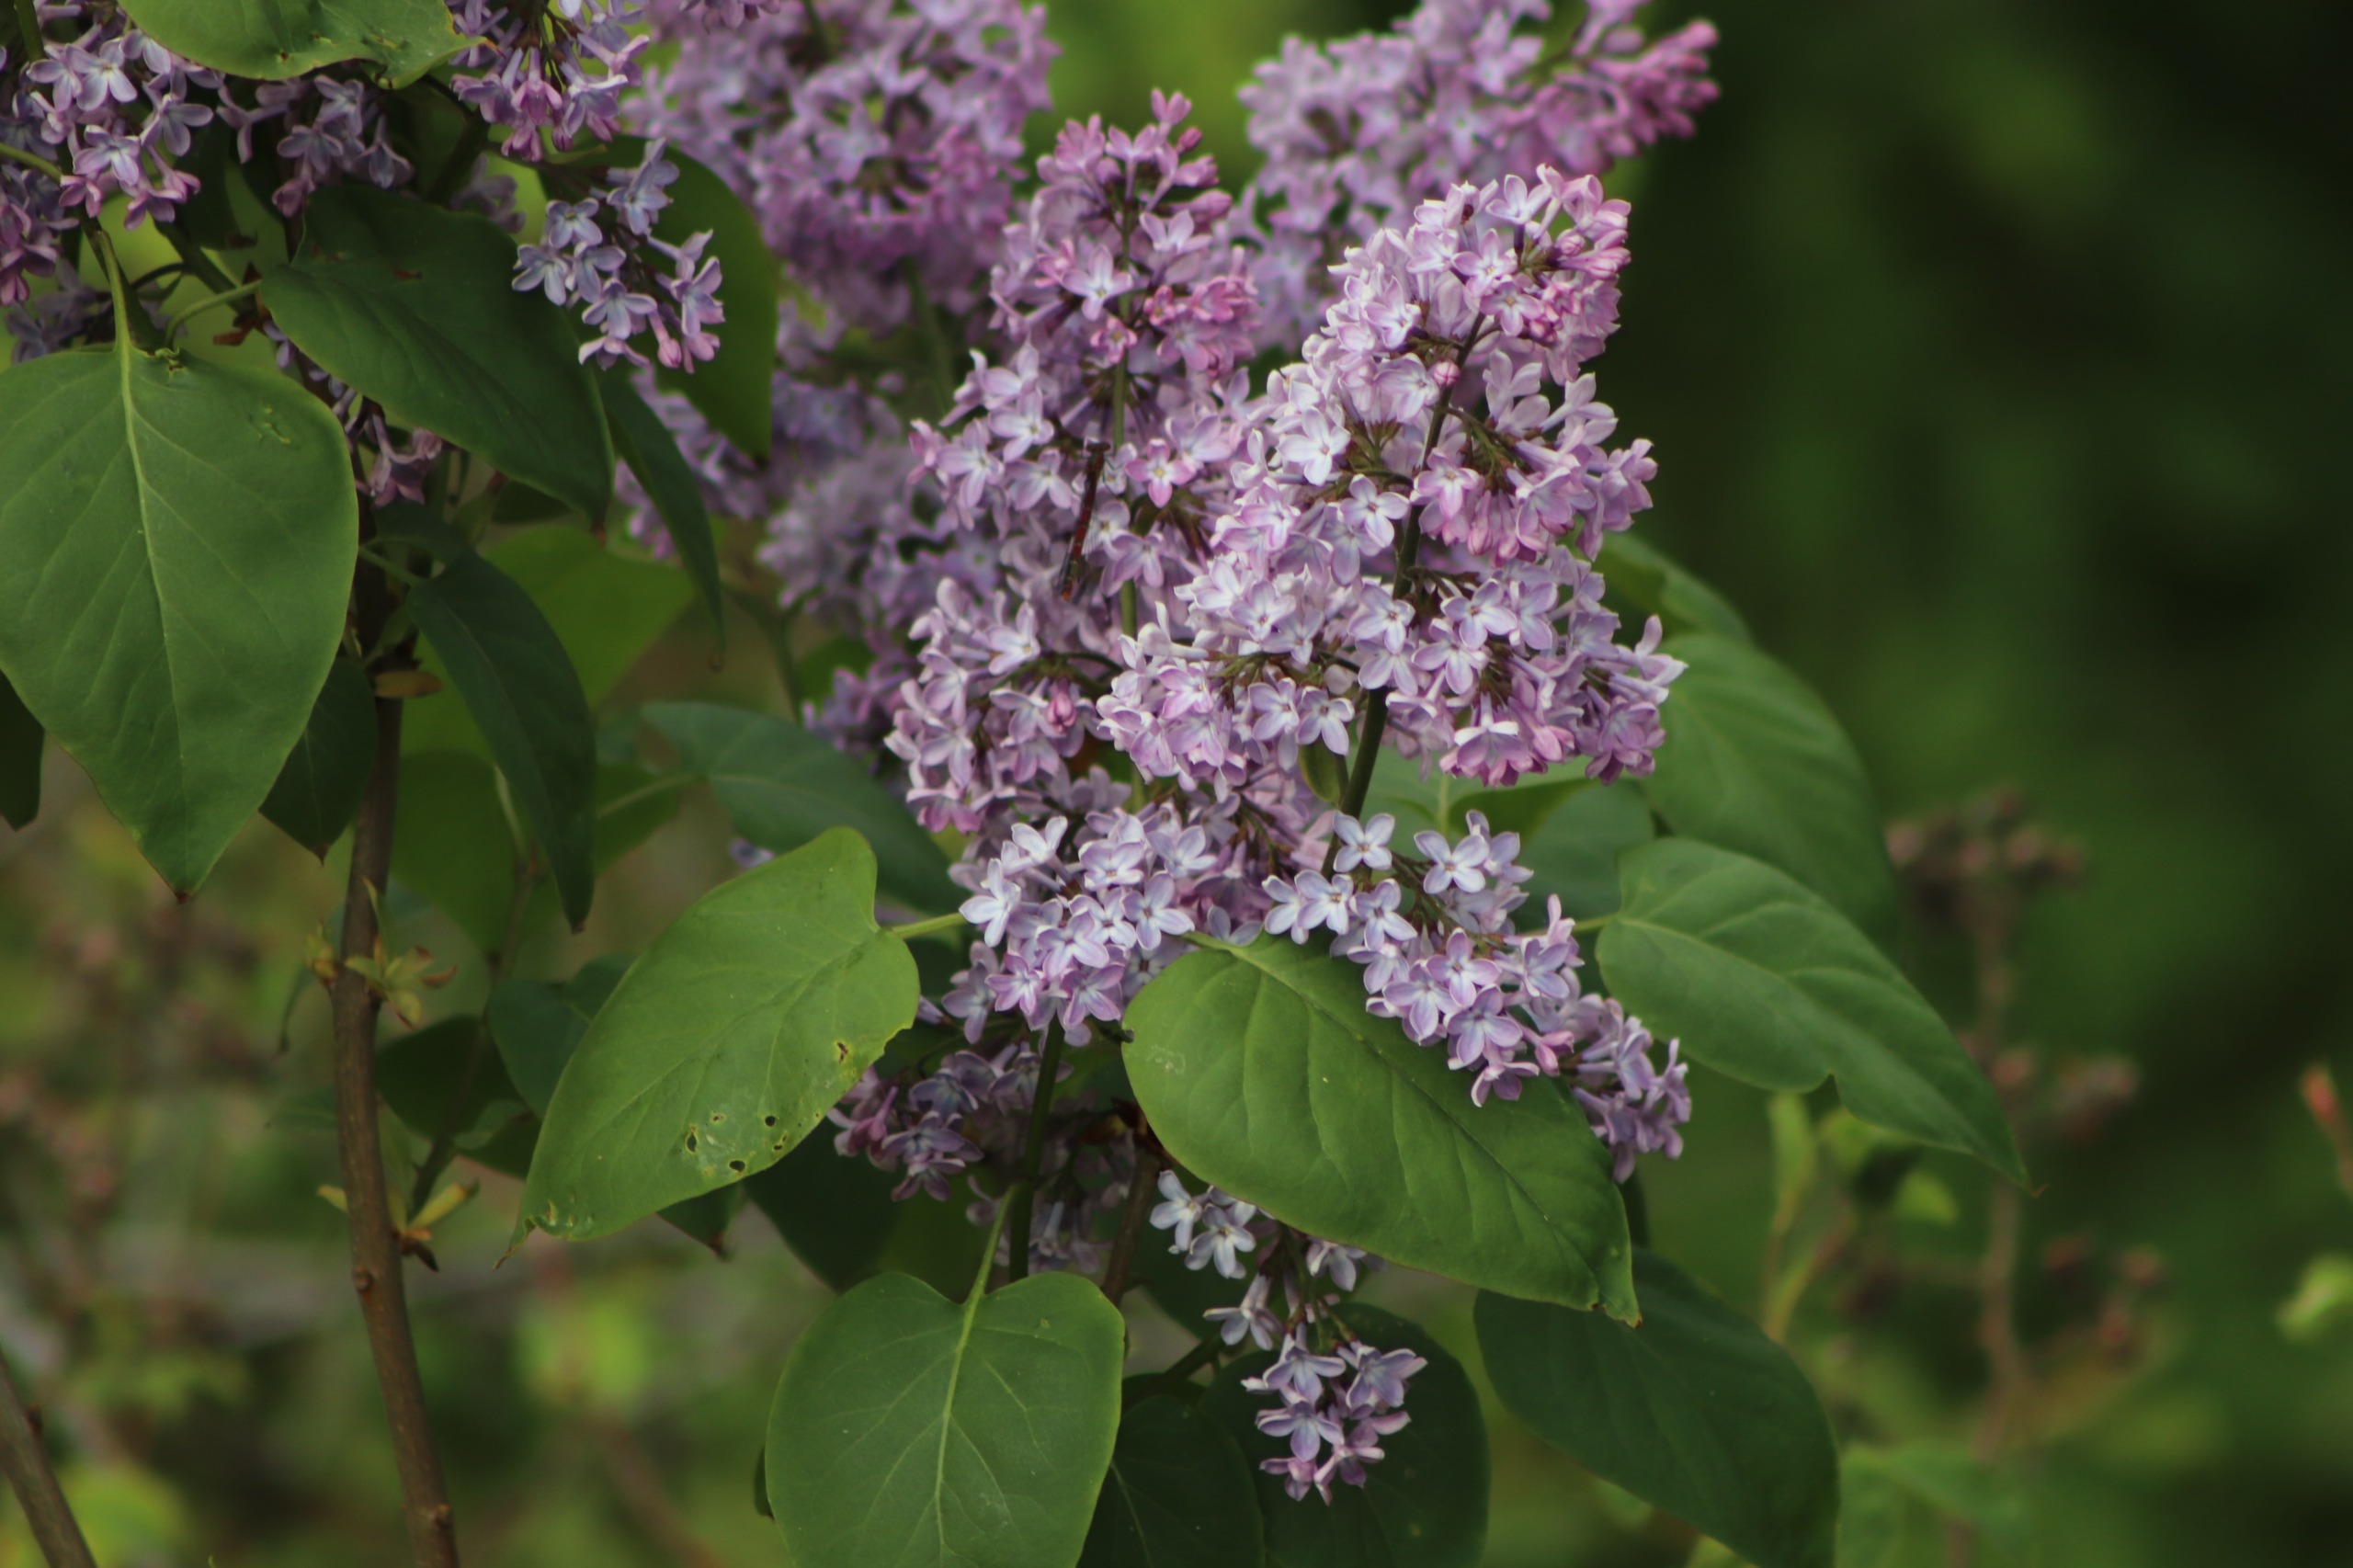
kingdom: Plantae
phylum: Tracheophyta
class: Magnoliopsida
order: Lamiales
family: Oleaceae
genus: Syringa
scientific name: Syringa vulgaris
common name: Syren
